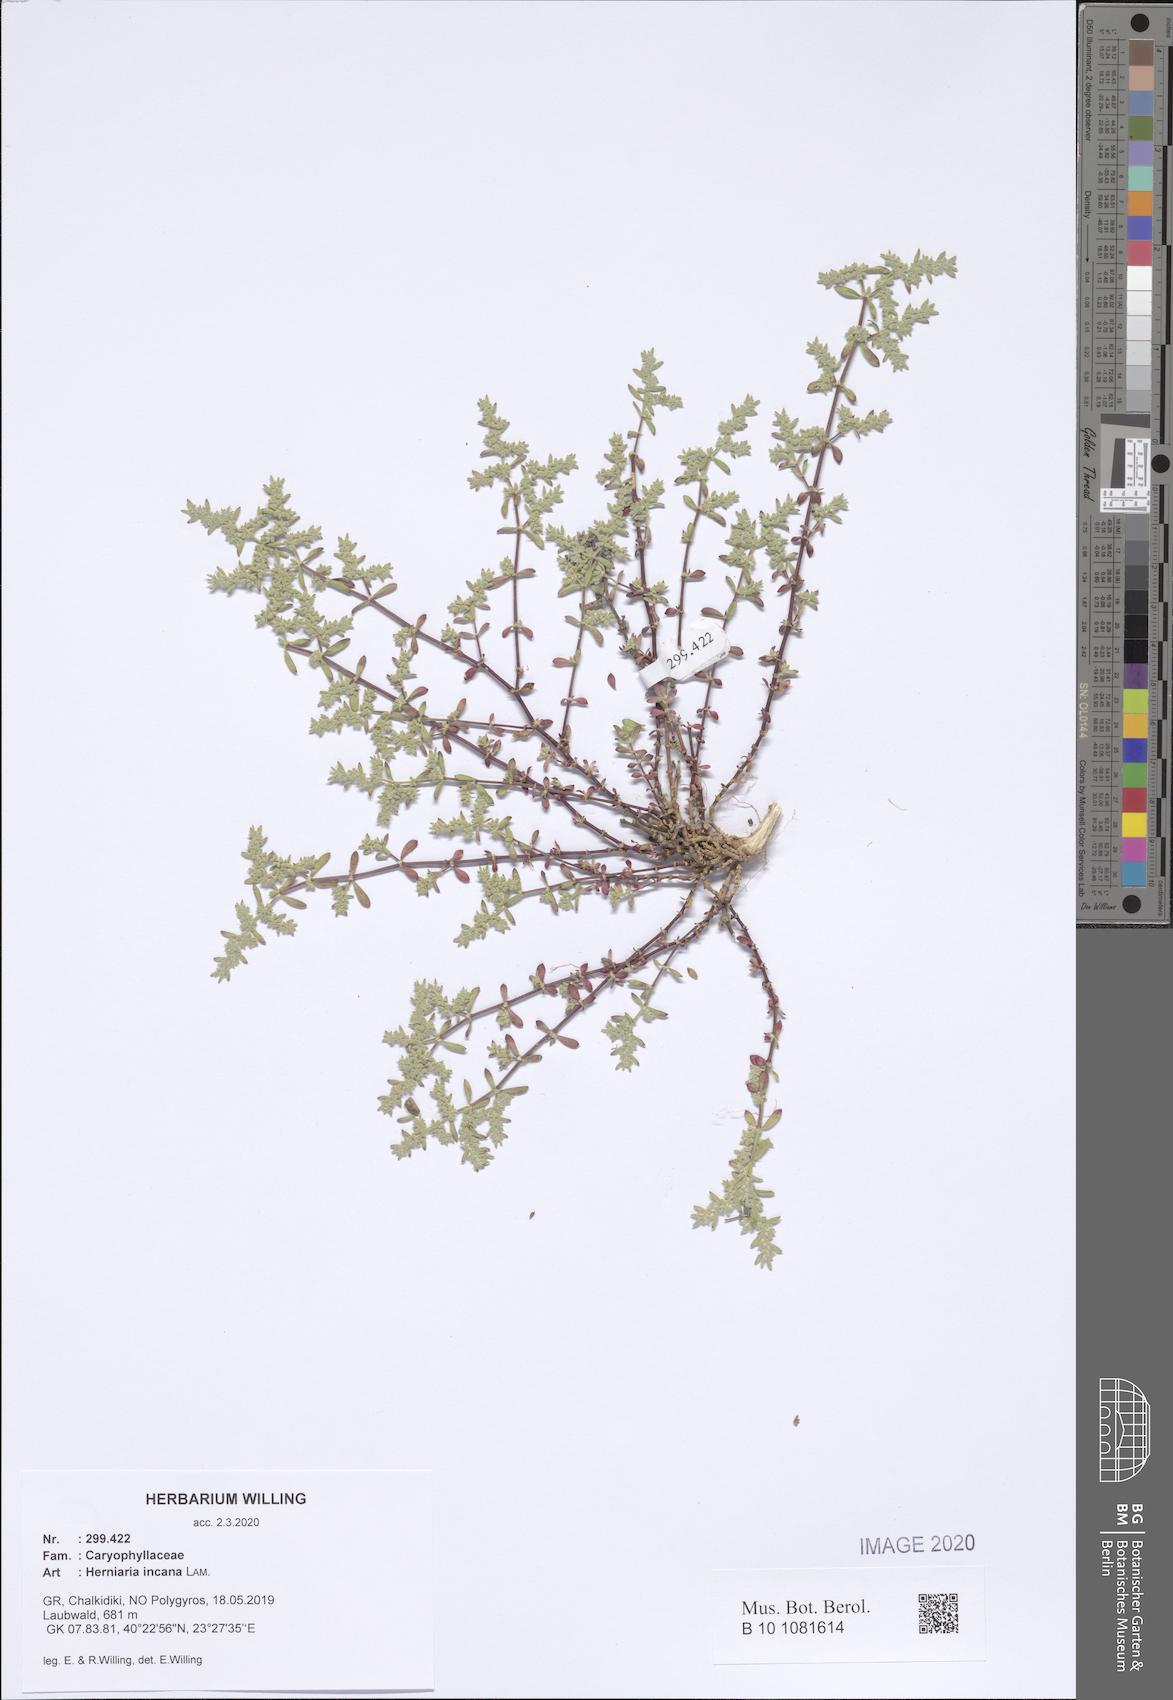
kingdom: Plantae
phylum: Tracheophyta
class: Magnoliopsida
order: Caryophyllales
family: Caryophyllaceae
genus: Herniaria
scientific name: Herniaria incana
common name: Gray rupturewort
